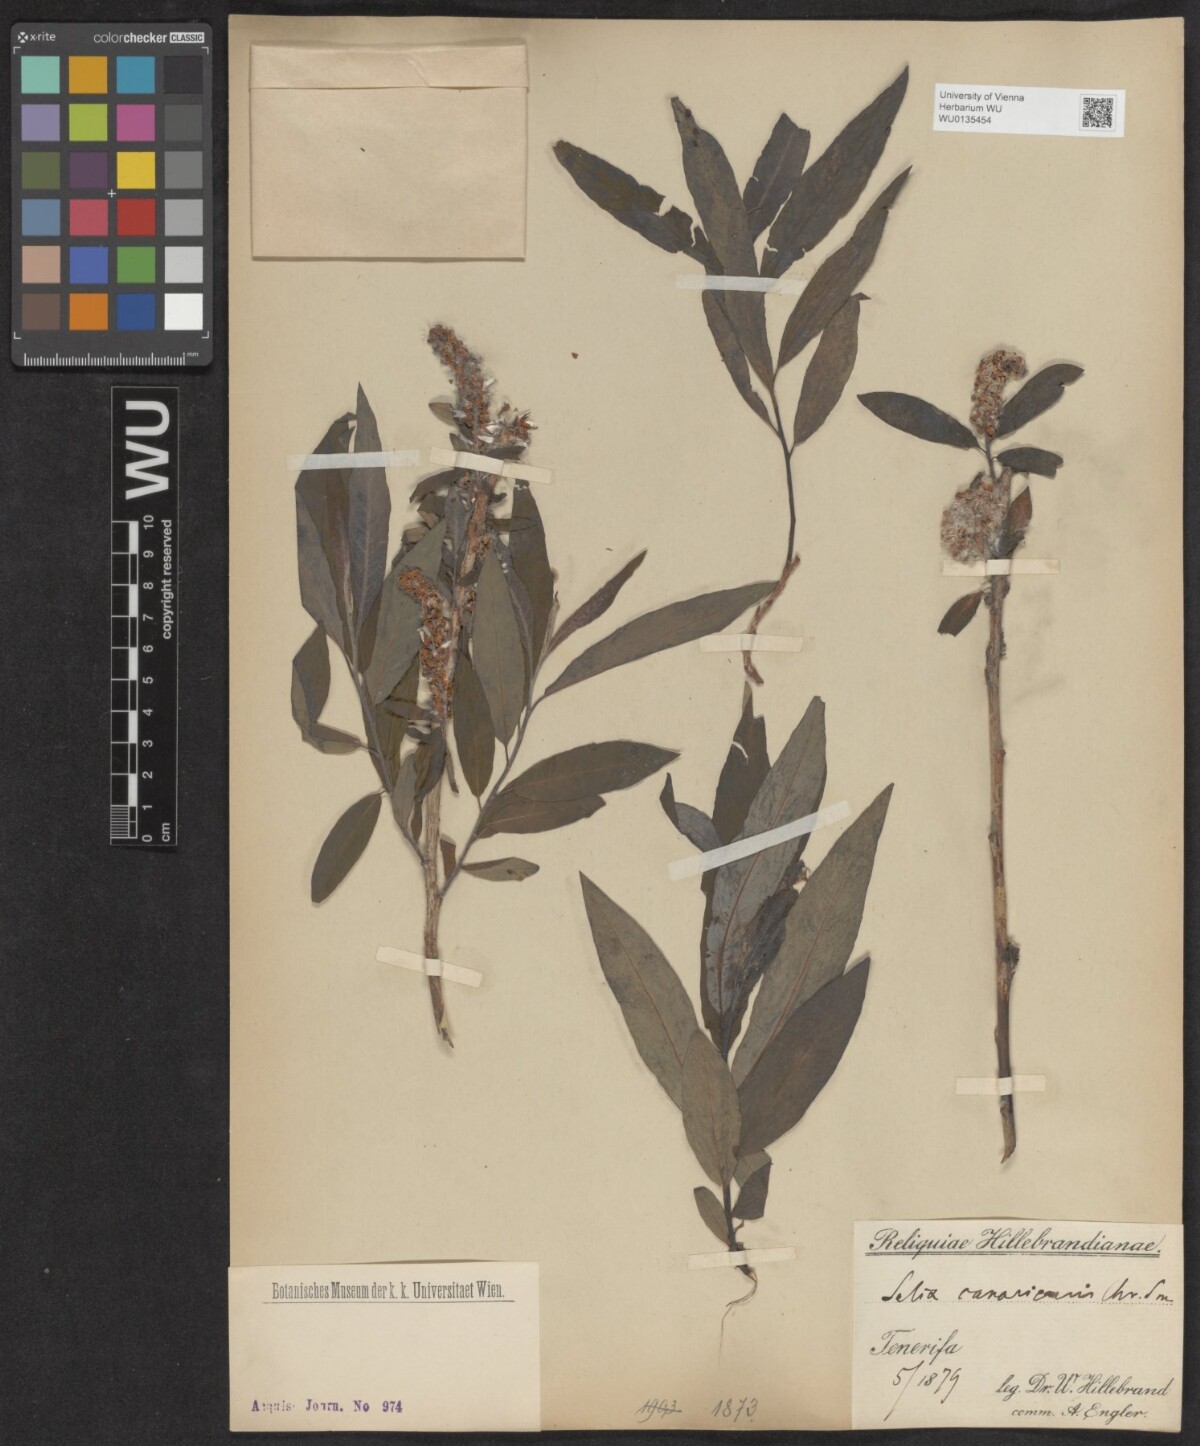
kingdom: Plantae
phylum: Tracheophyta
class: Magnoliopsida
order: Malpighiales
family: Salicaceae
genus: Salix
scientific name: Salix canariensis
